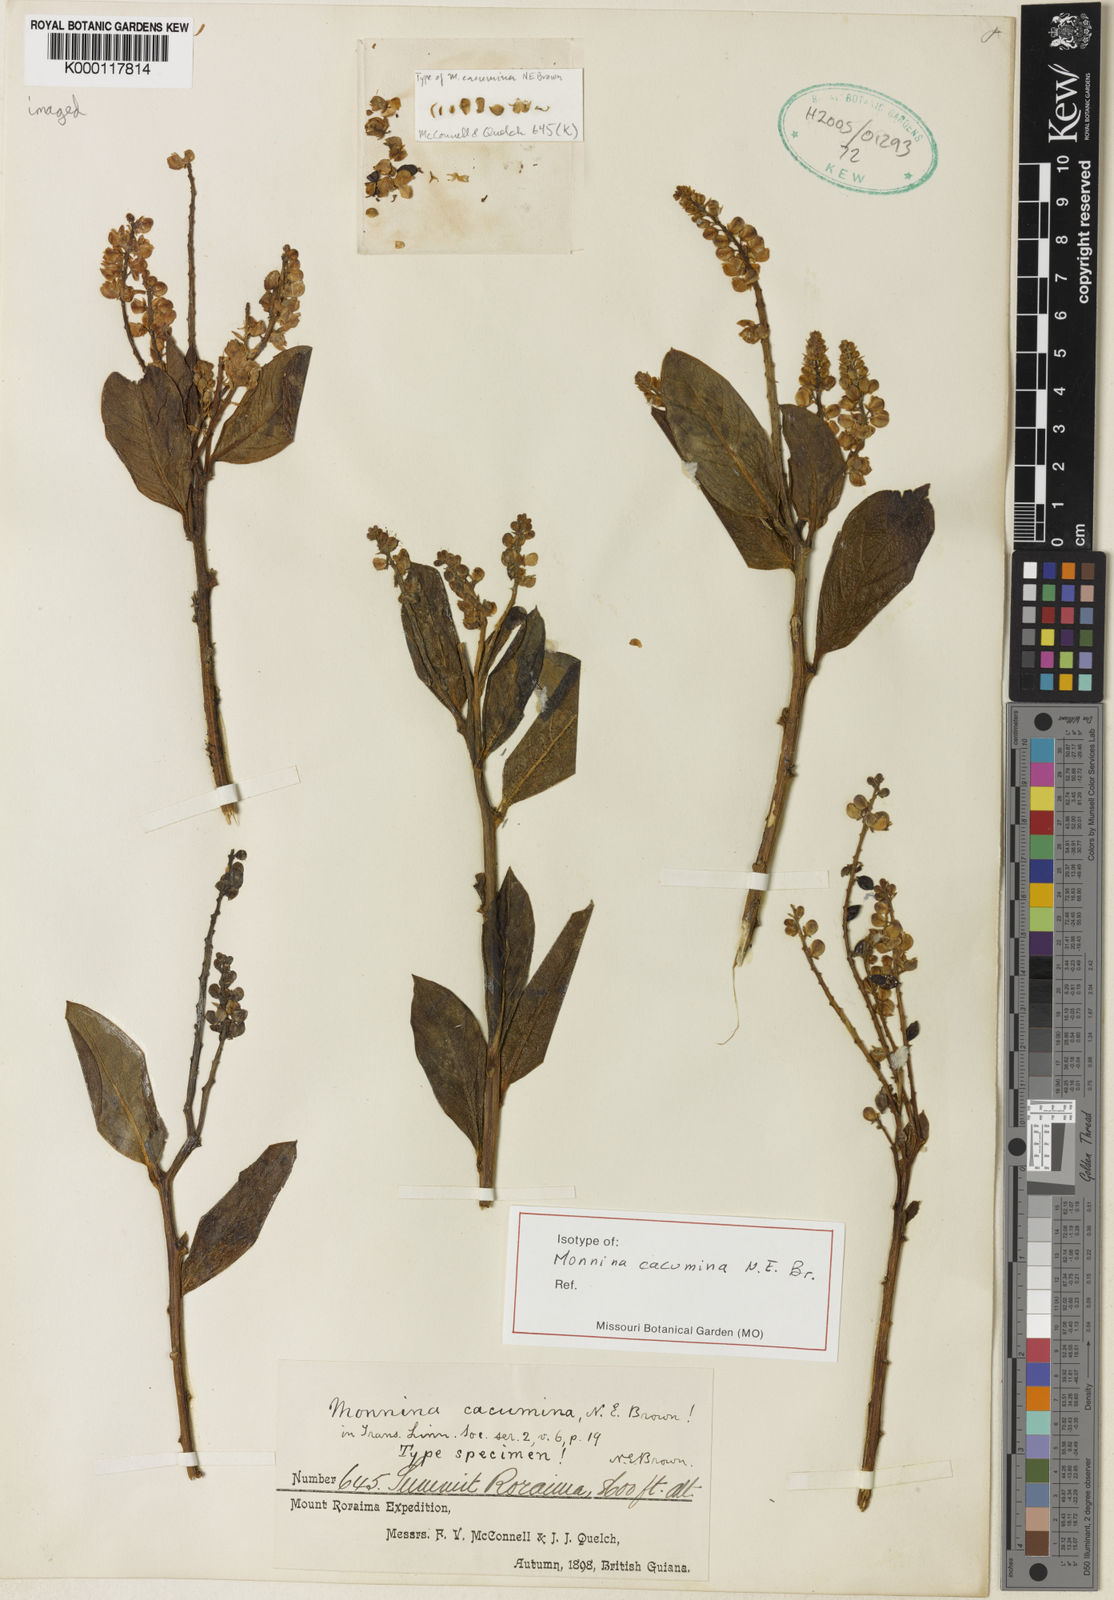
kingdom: Plantae
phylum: Tracheophyta
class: Magnoliopsida
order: Fabales
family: Polygalaceae
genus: Monnina
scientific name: Monnina
